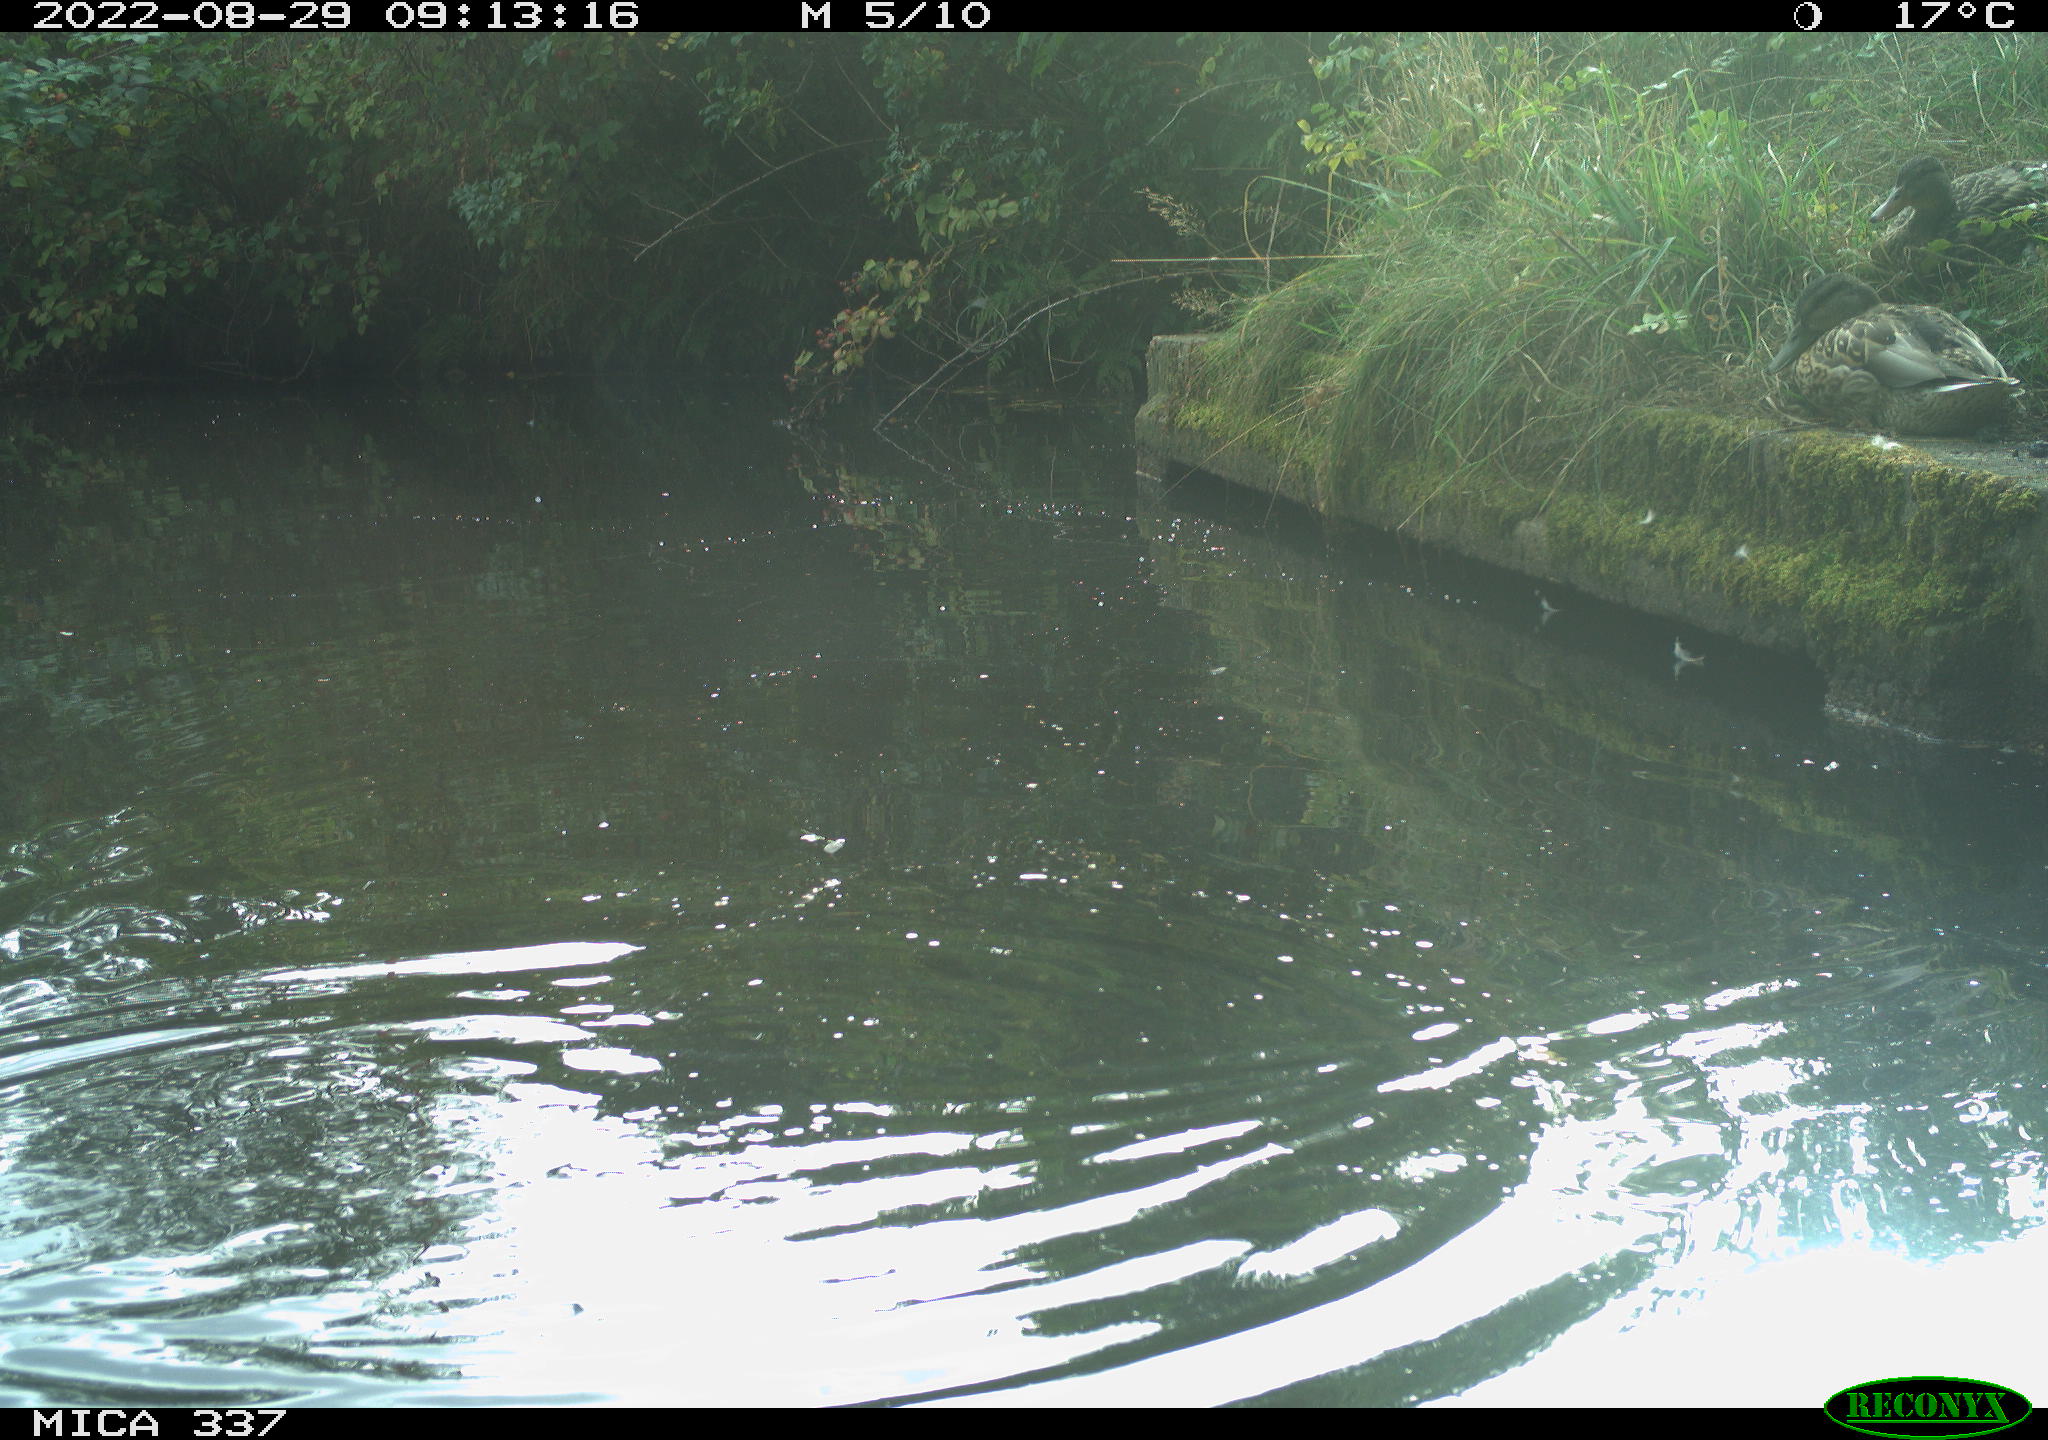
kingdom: Animalia
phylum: Chordata
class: Aves
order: Anseriformes
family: Anatidae
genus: Anas
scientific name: Anas platyrhynchos
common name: Mallard
